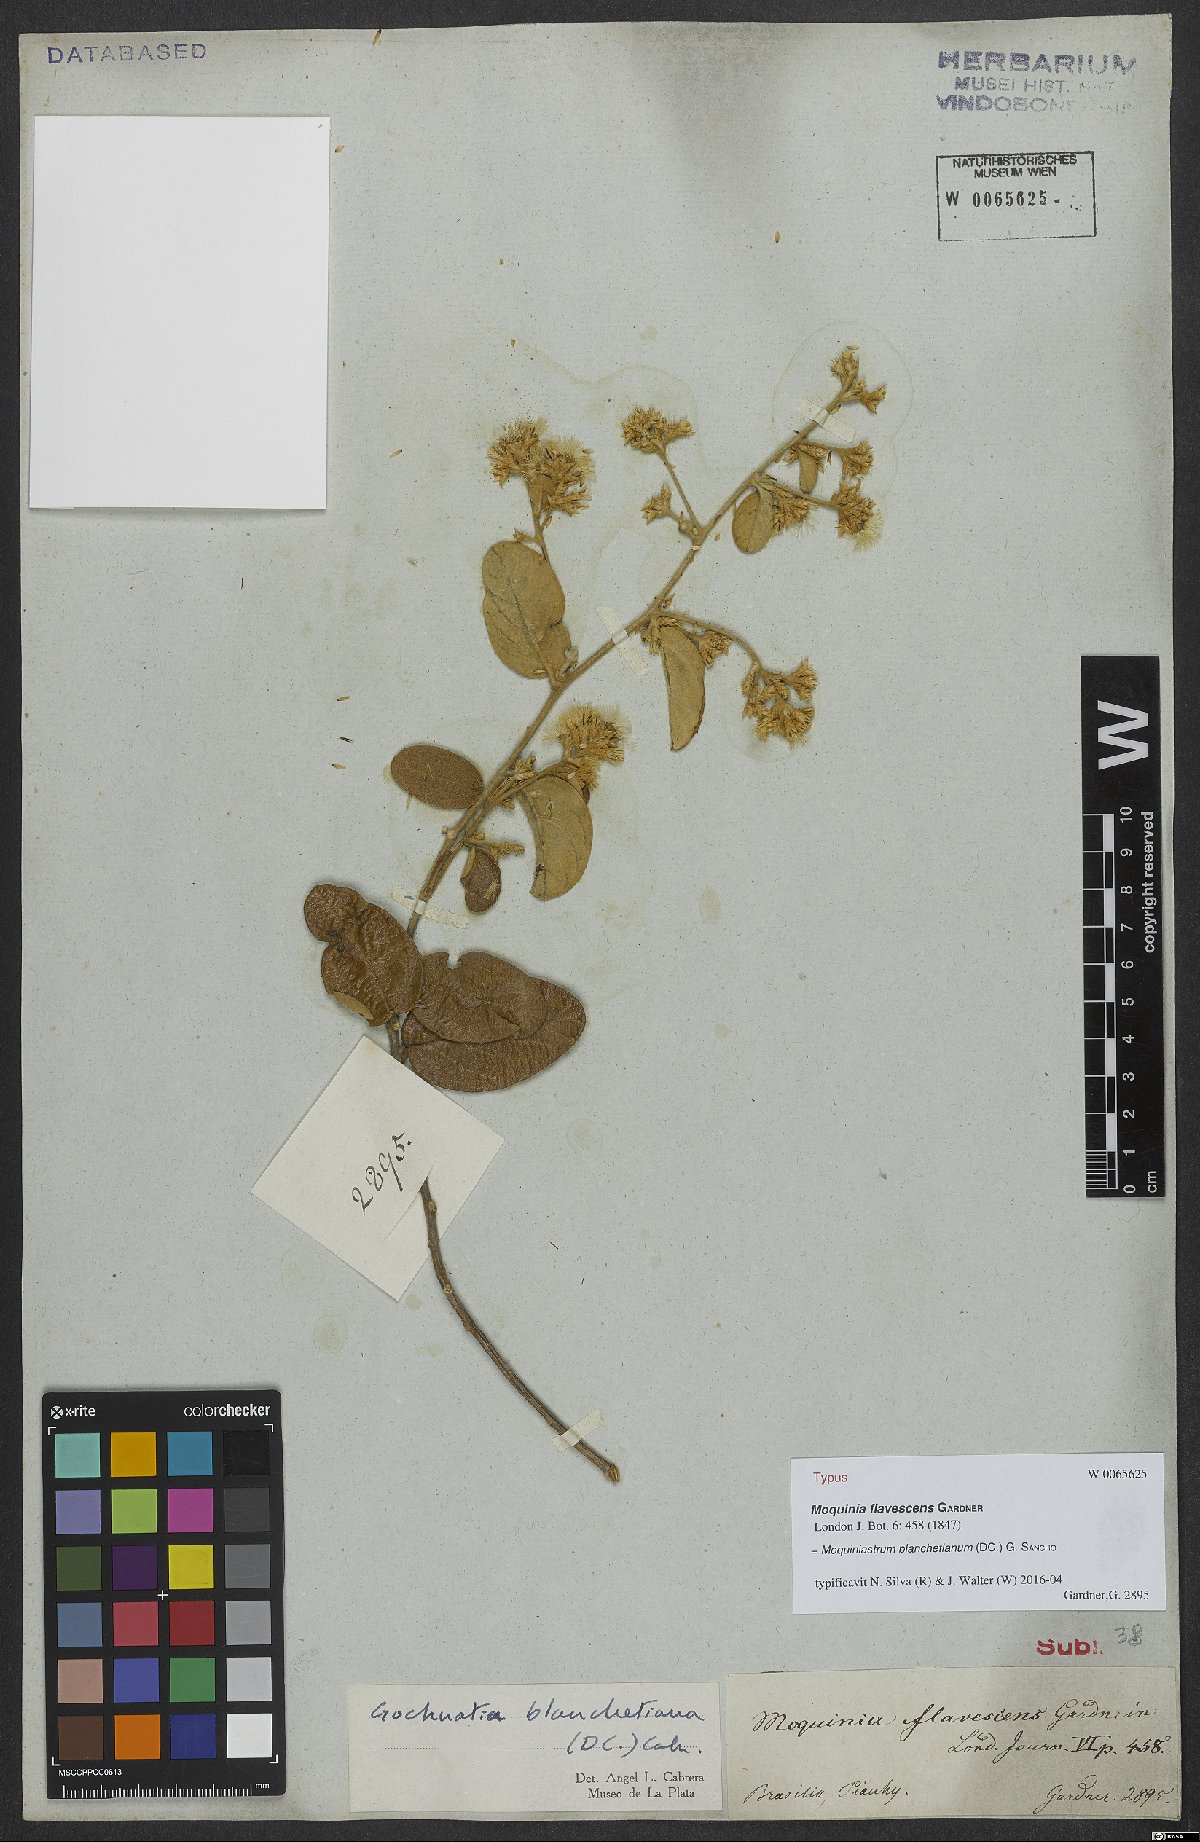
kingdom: Plantae
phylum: Tracheophyta
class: Magnoliopsida
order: Asterales
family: Asteraceae
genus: Moquiniastrum
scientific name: Moquiniastrum blanchetianum
